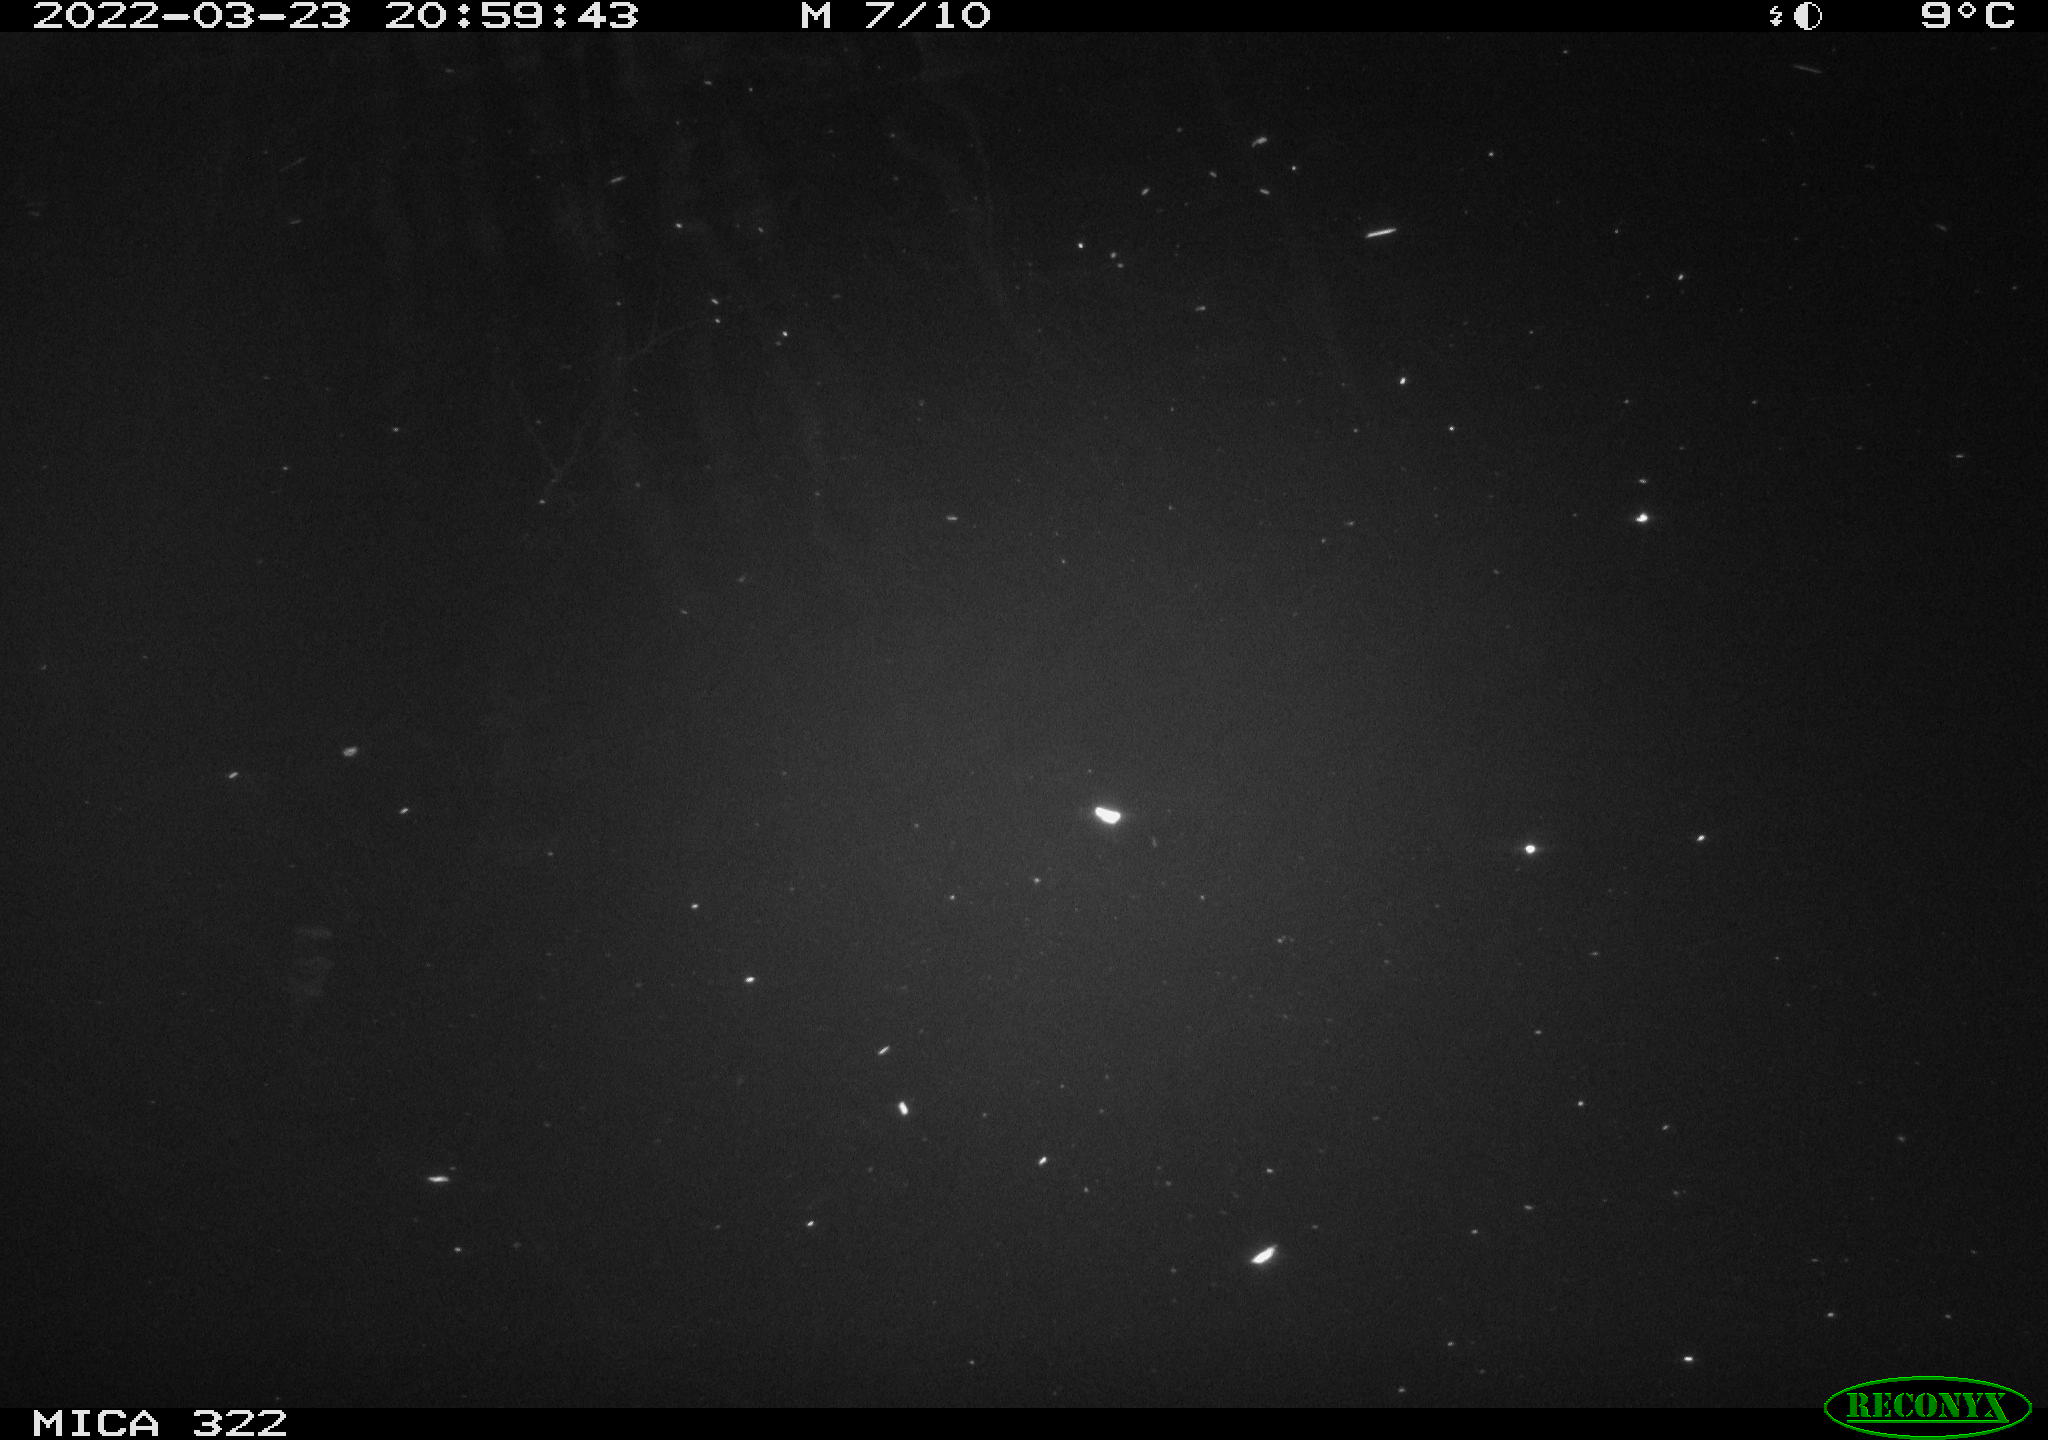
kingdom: Animalia
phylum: Chordata
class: Aves
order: Anseriformes
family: Anatidae
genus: Anas
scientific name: Anas platyrhynchos
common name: Mallard
